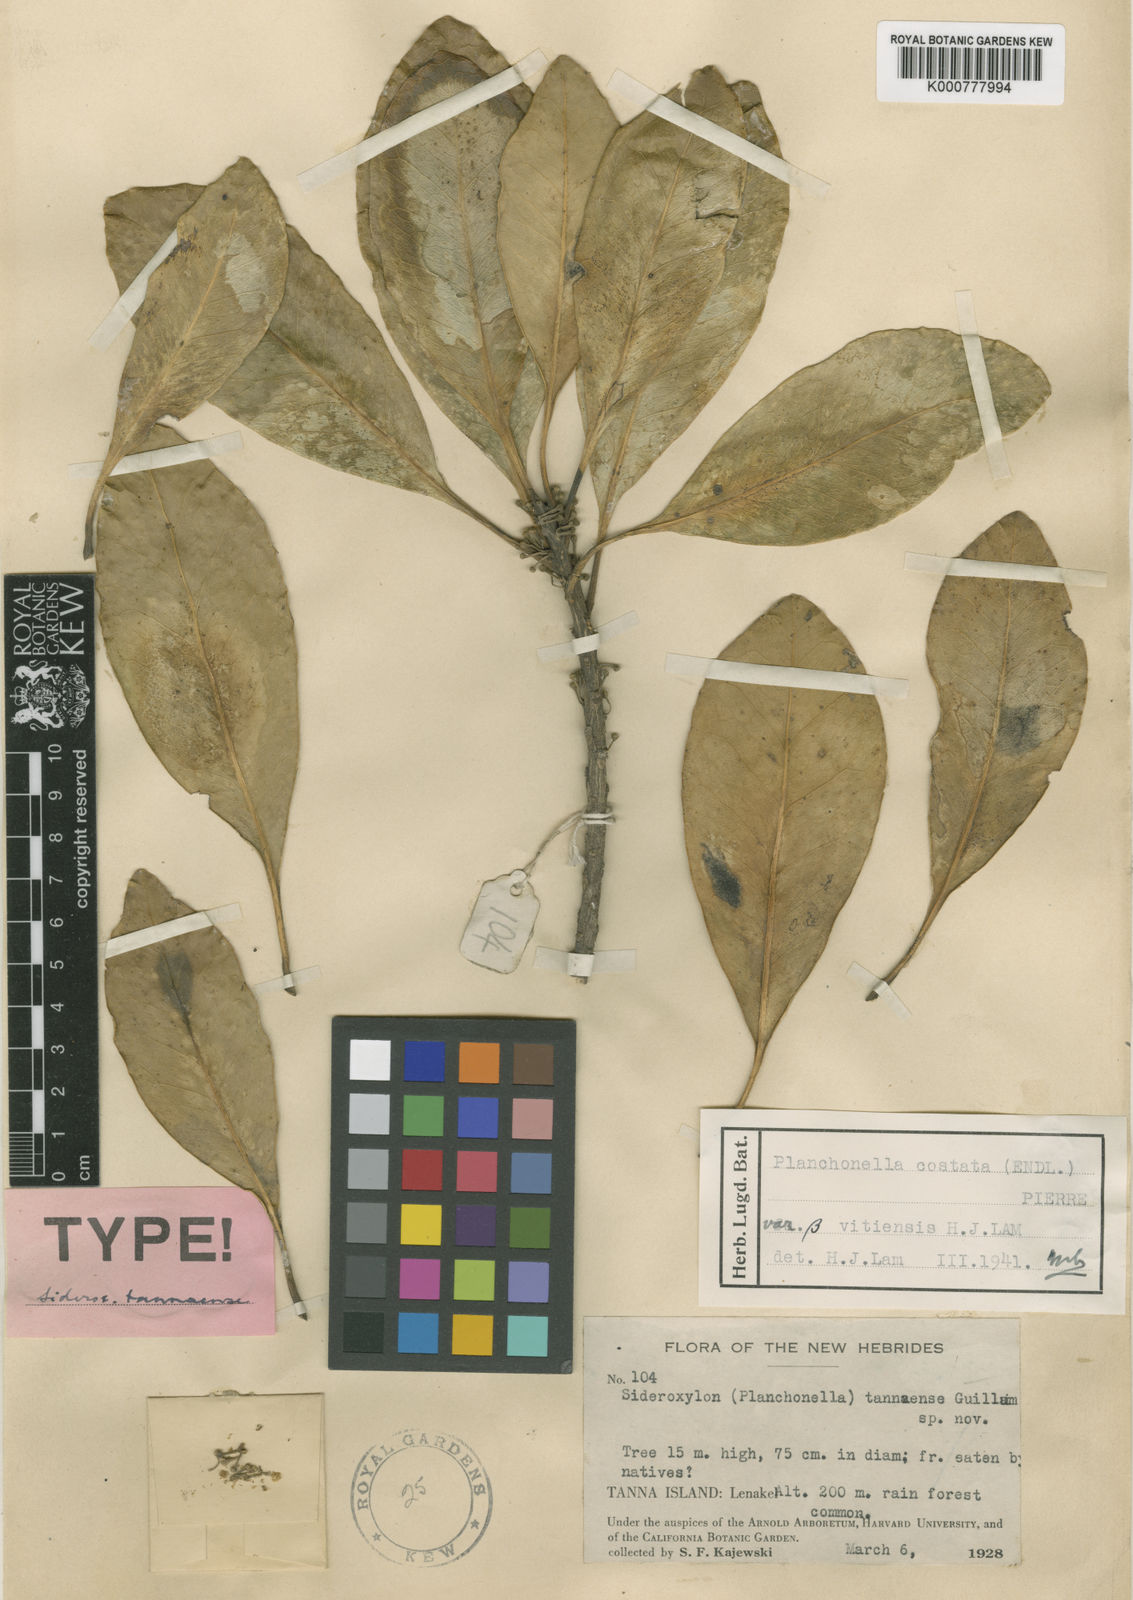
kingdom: Plantae
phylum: Tracheophyta
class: Magnoliopsida
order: Ericales
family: Sapotaceae
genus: Planchonella
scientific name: Planchonella costata
